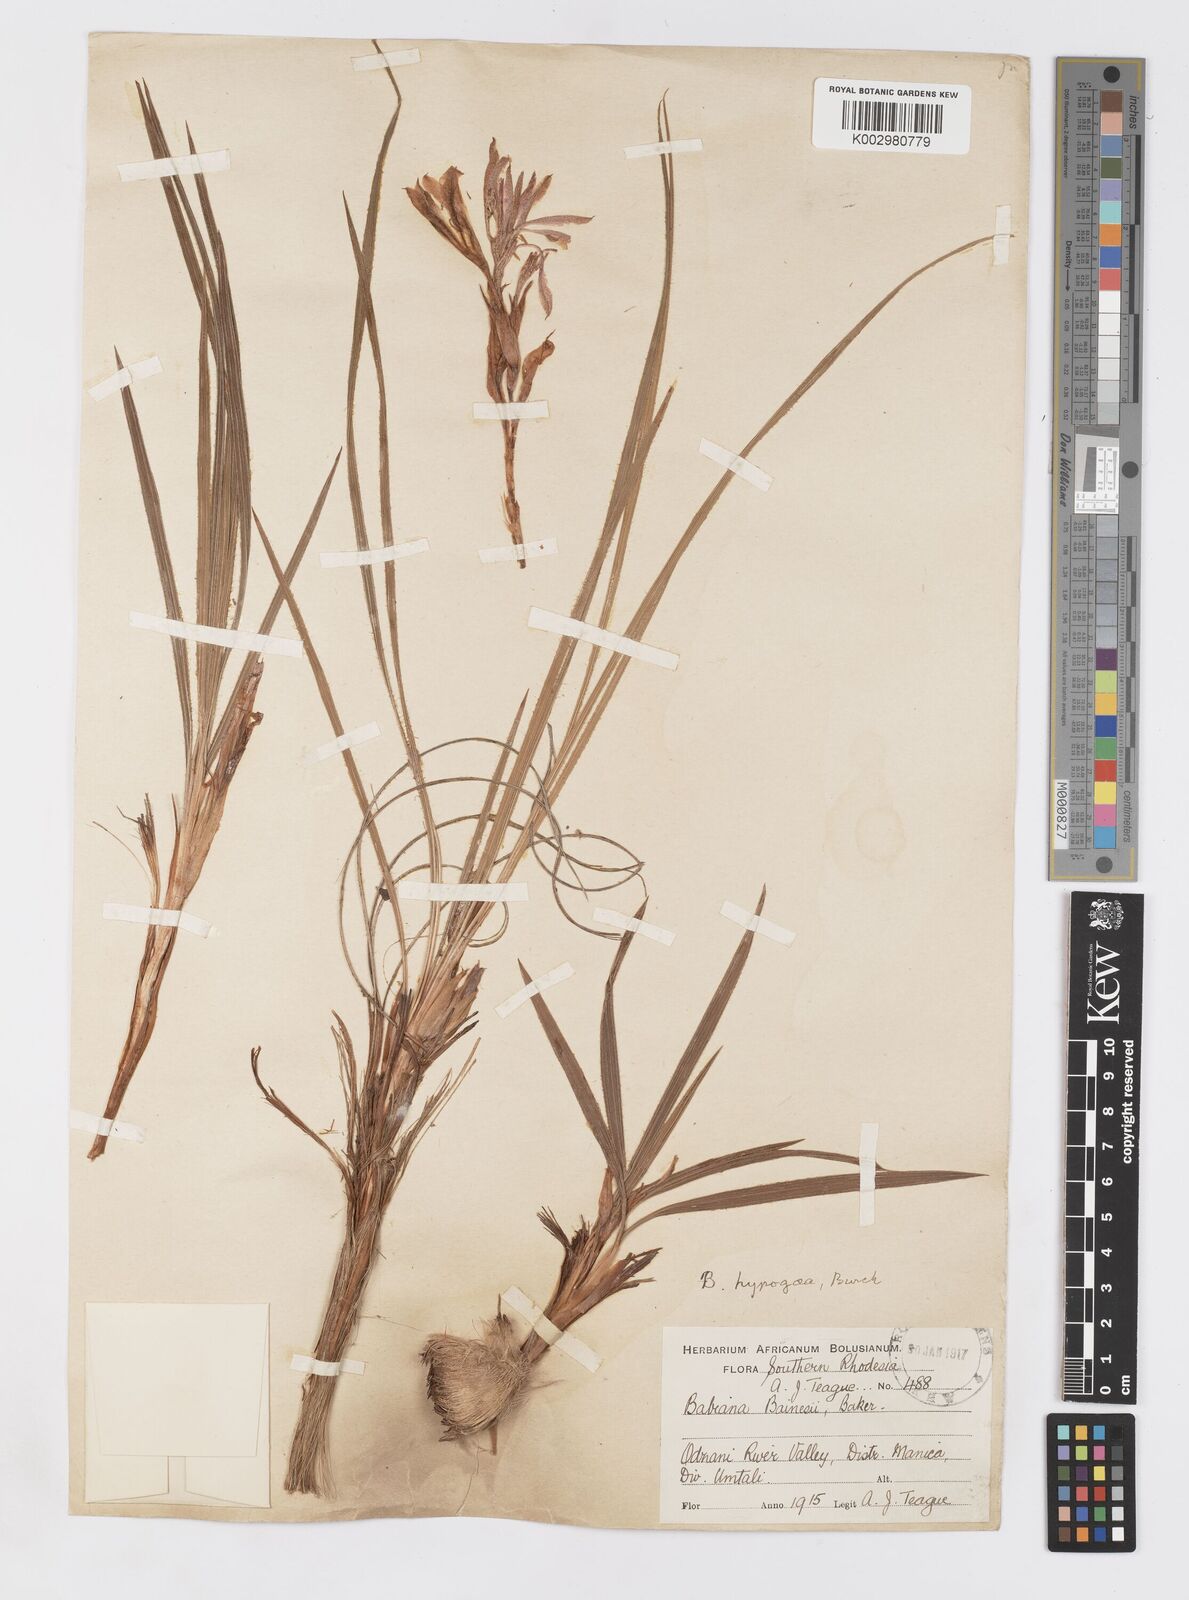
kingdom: Plantae
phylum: Tracheophyta
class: Liliopsida
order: Asparagales
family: Iridaceae
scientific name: Iridaceae
